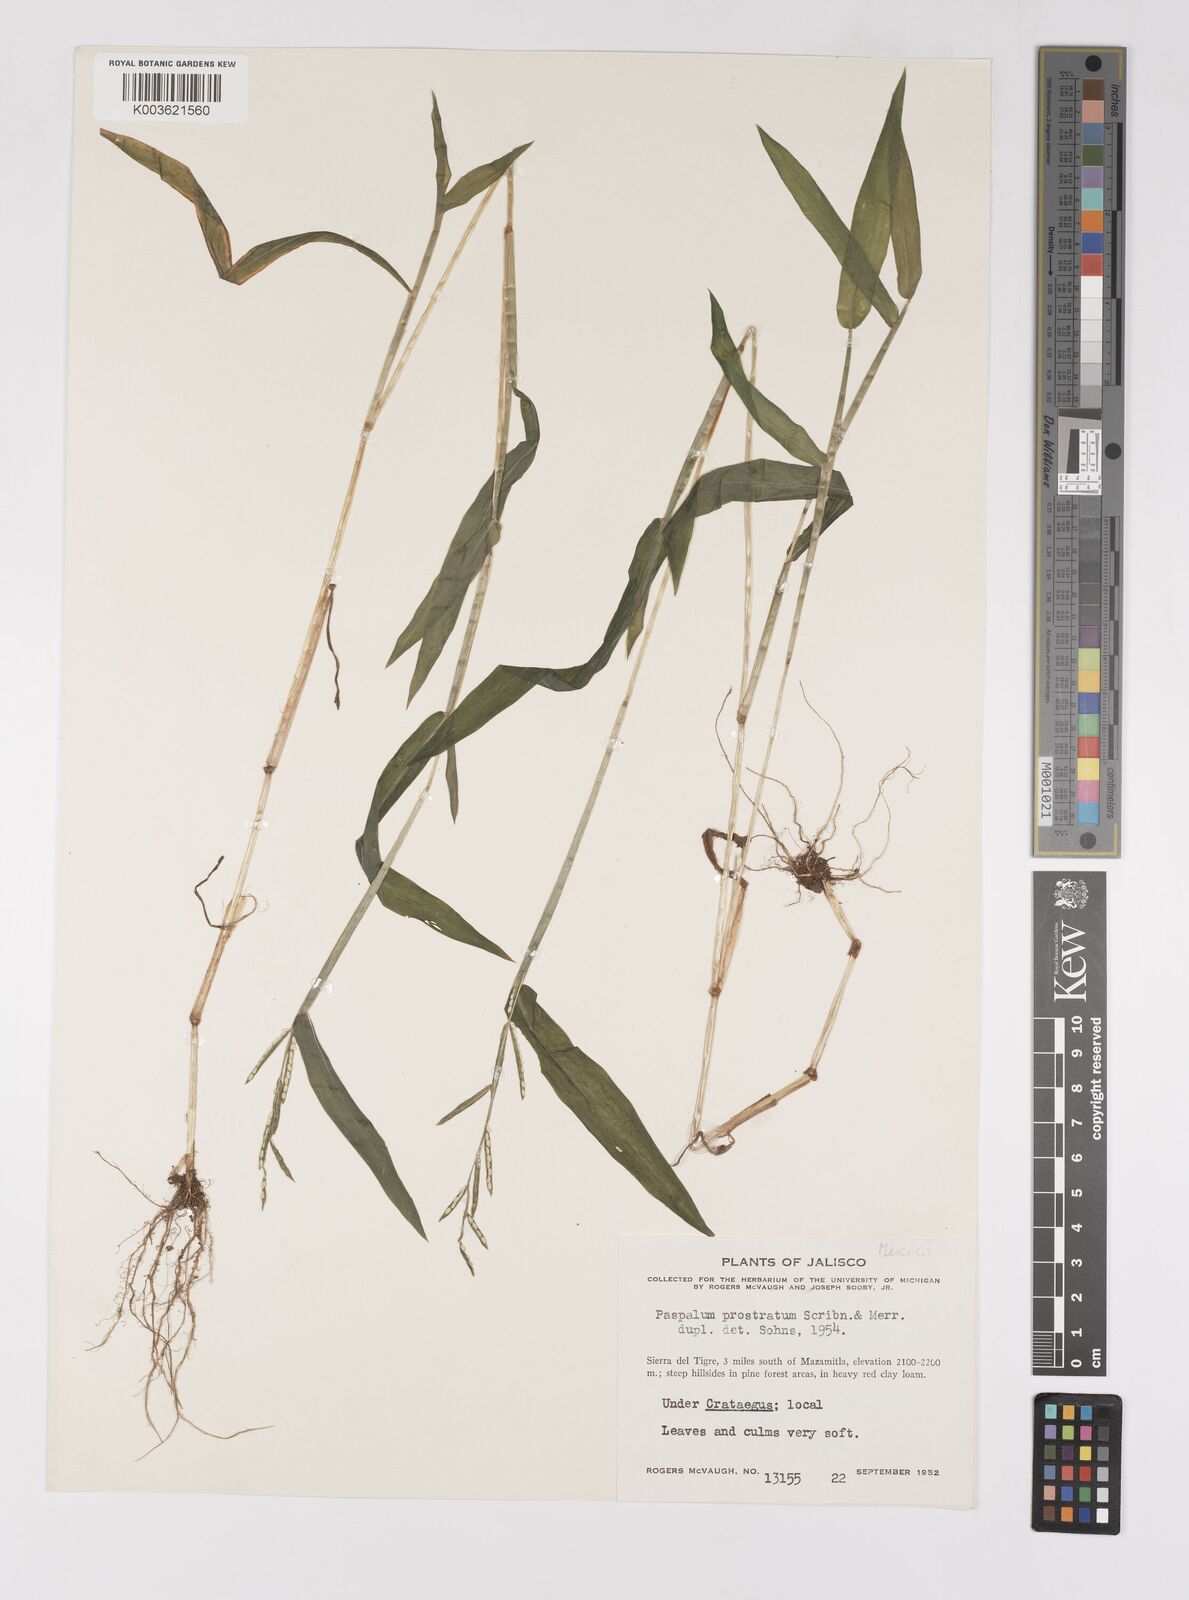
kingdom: Plantae
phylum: Tracheophyta
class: Liliopsida
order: Poales
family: Poaceae
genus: Paspalum
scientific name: Paspalum prostratum
